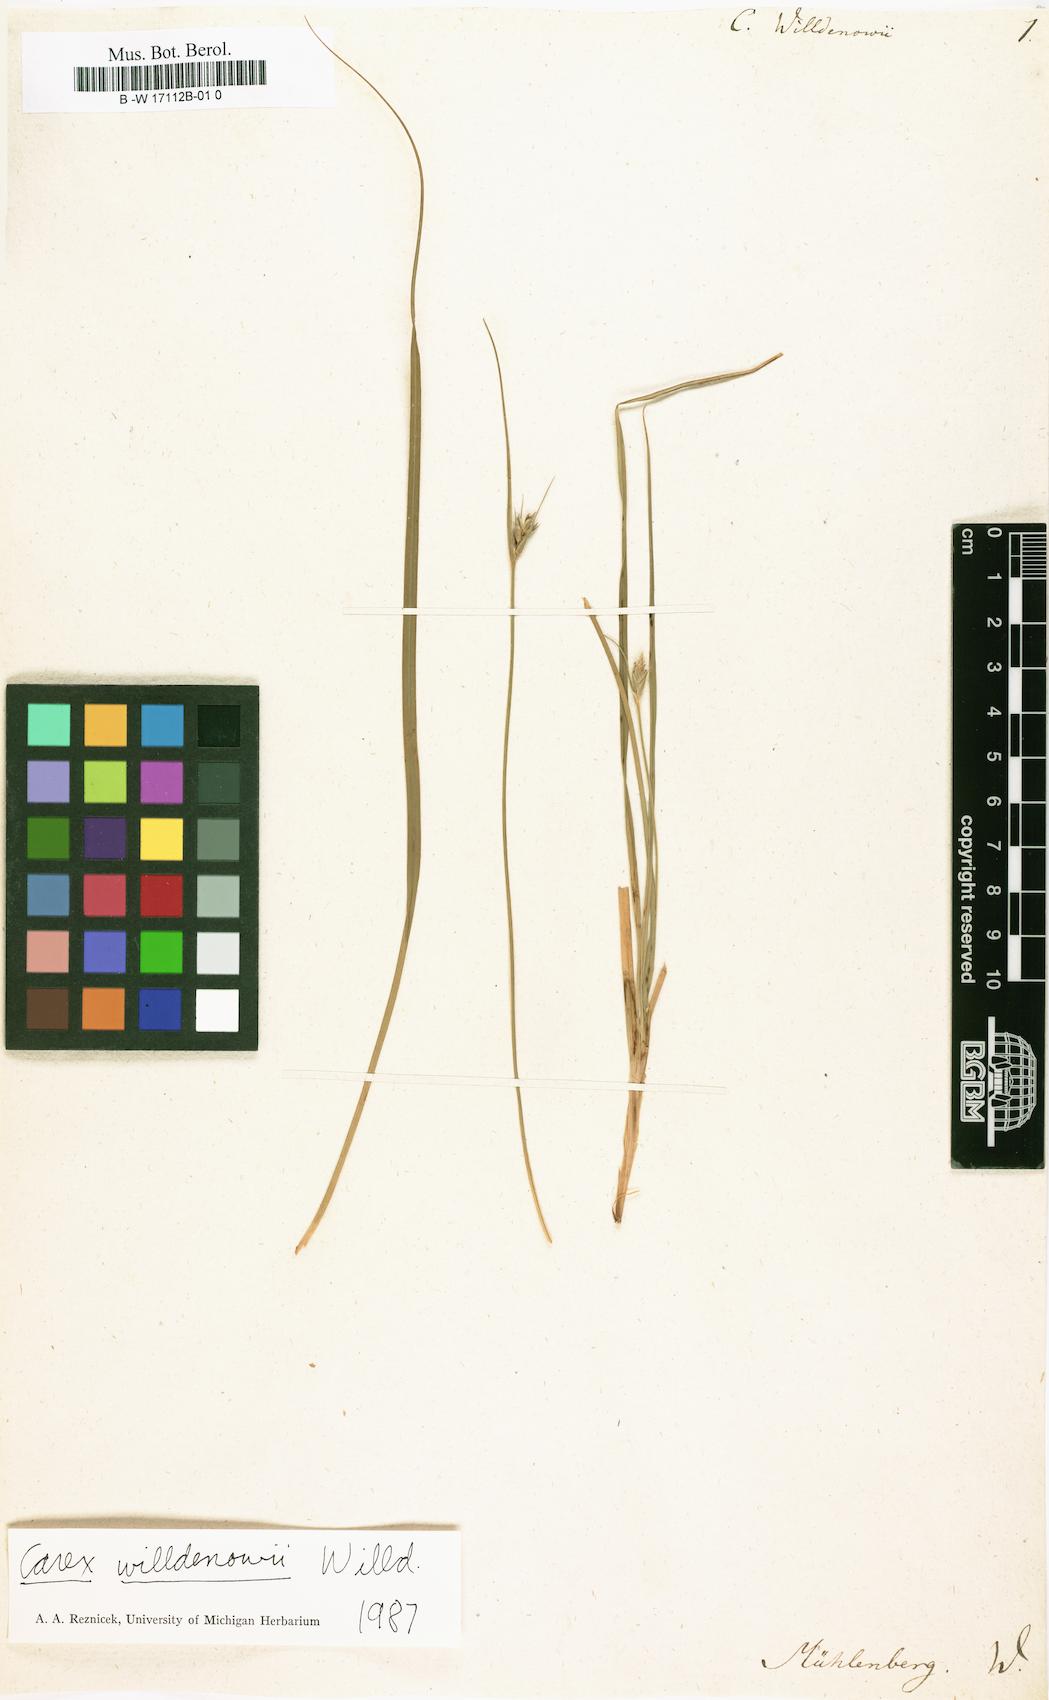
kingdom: Plantae
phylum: Tracheophyta
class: Liliopsida
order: Poales
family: Cyperaceae
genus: Carex
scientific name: Carex willdenowii
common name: Willdenow's sedge
